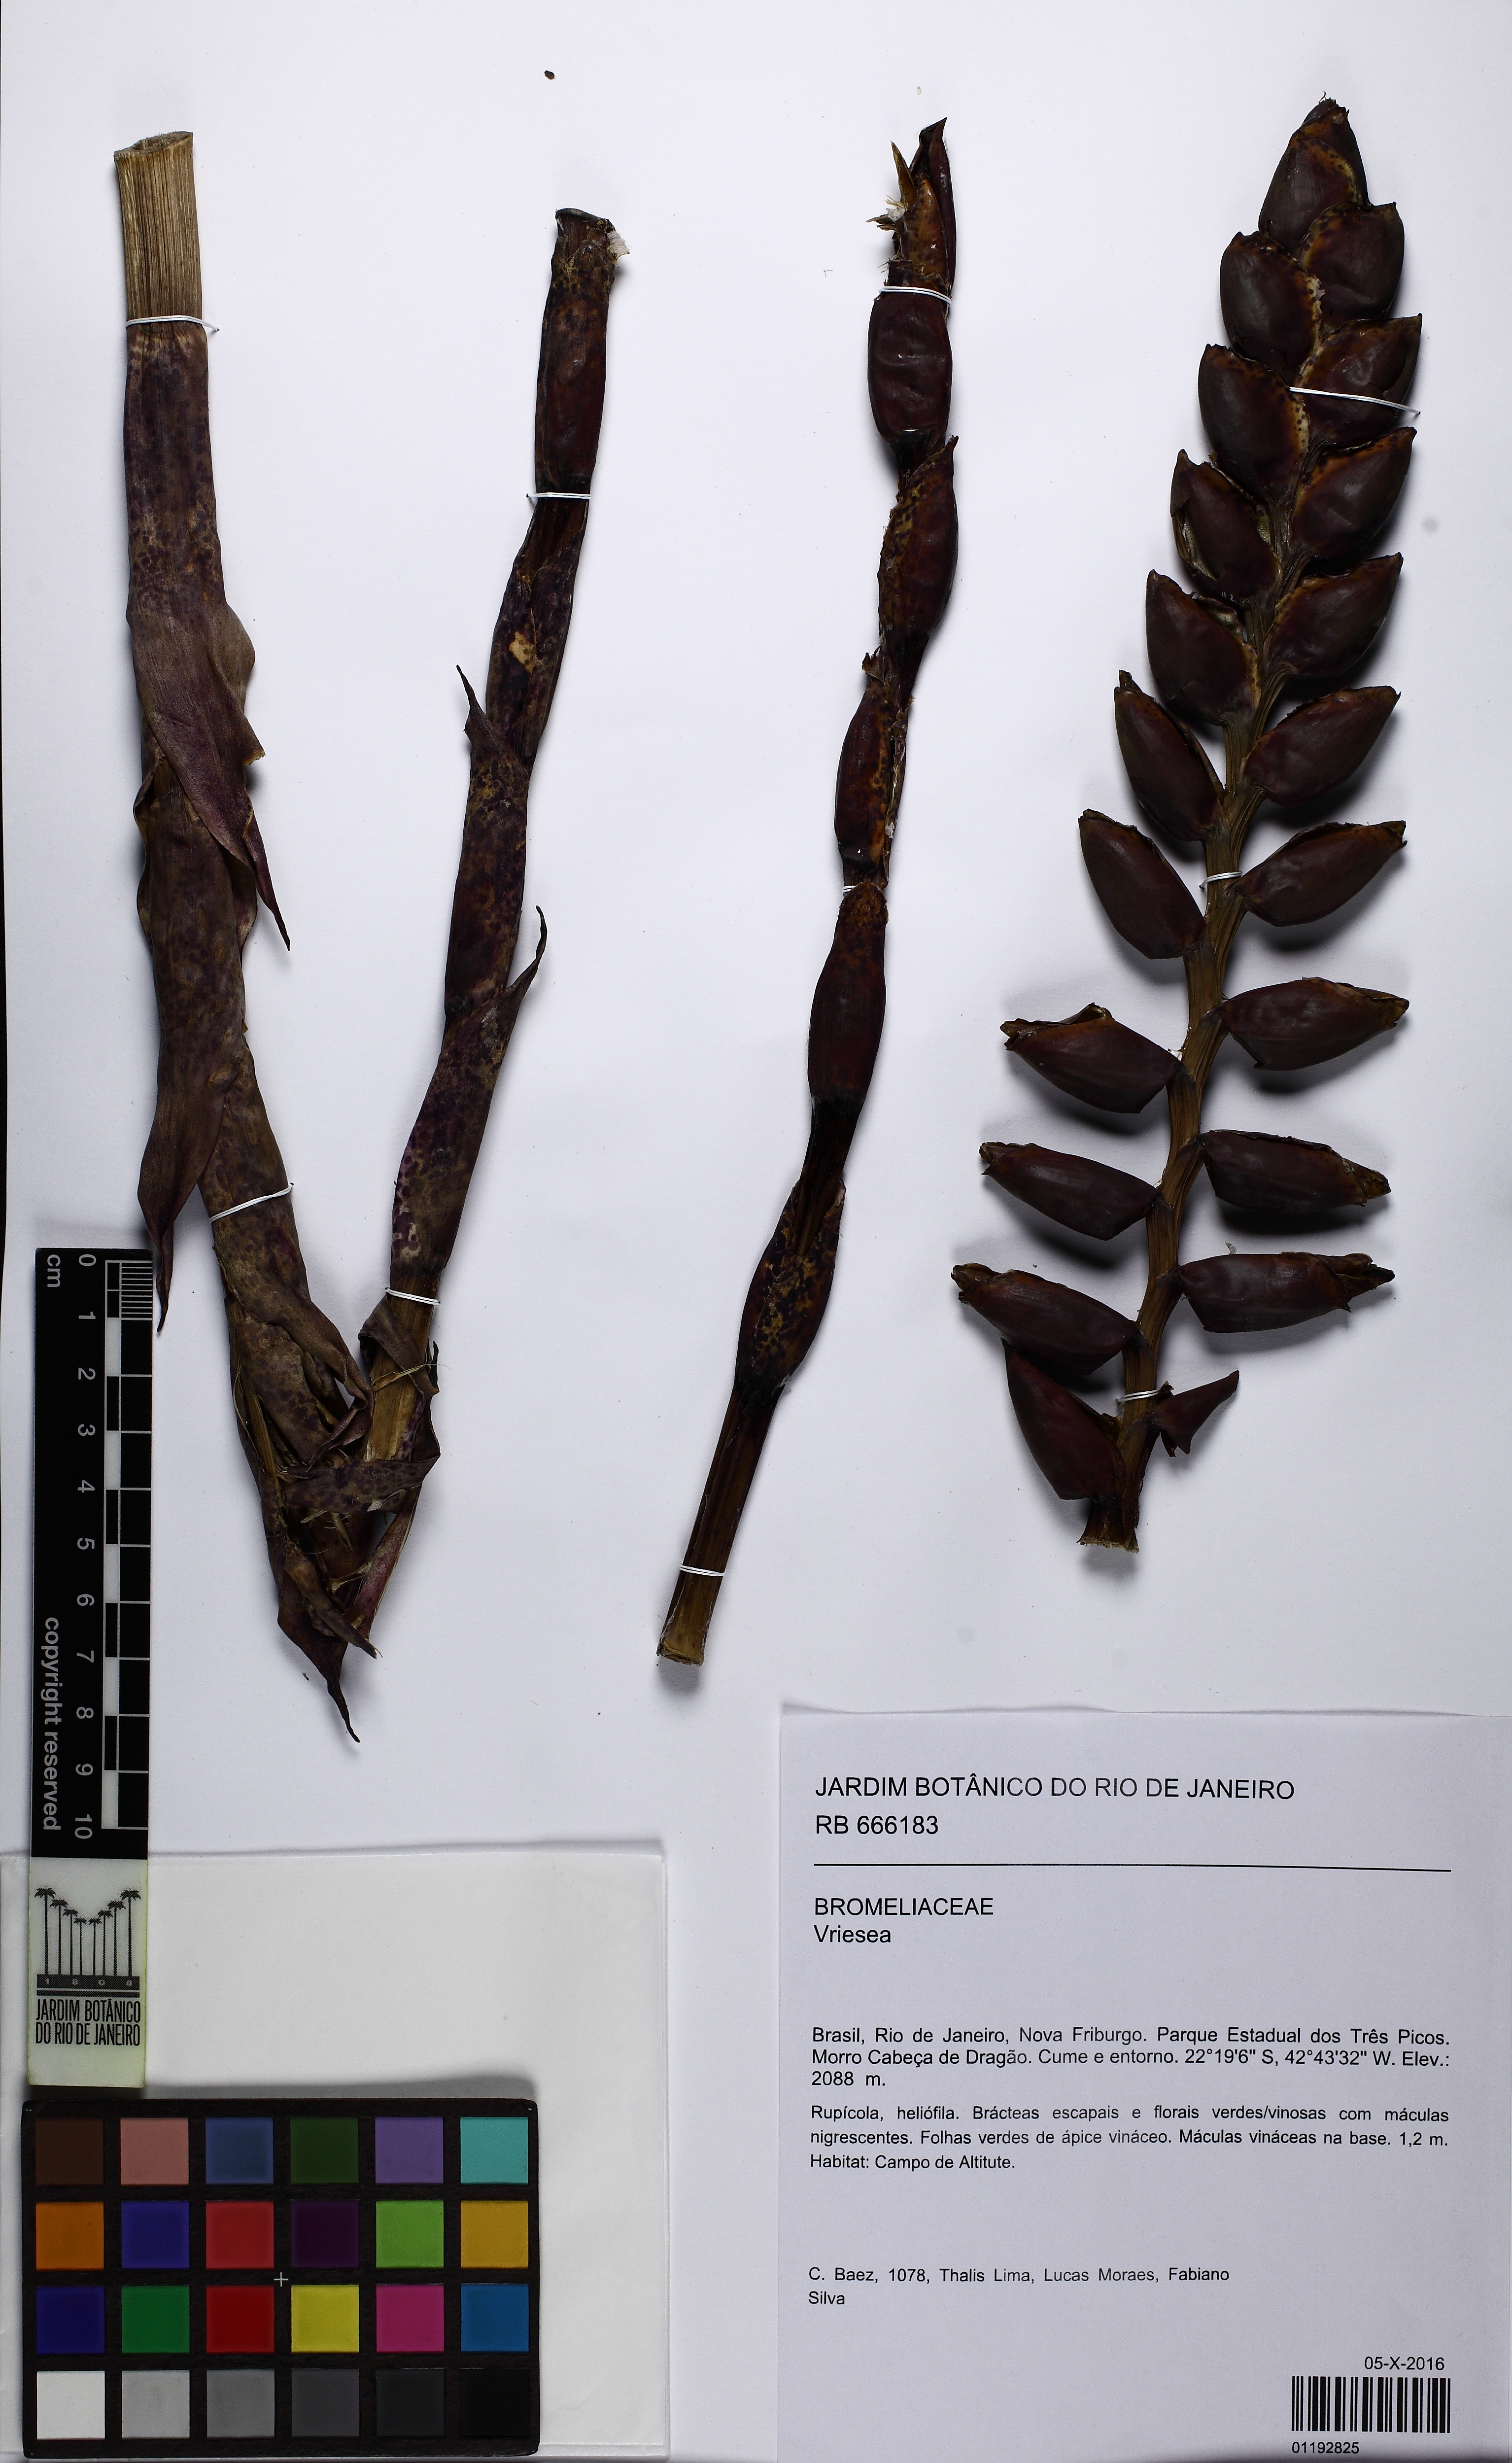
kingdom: Plantae
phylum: Tracheophyta
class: Liliopsida
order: Poales
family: Bromeliaceae
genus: Vriesea
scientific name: Vriesea pseudoatra
